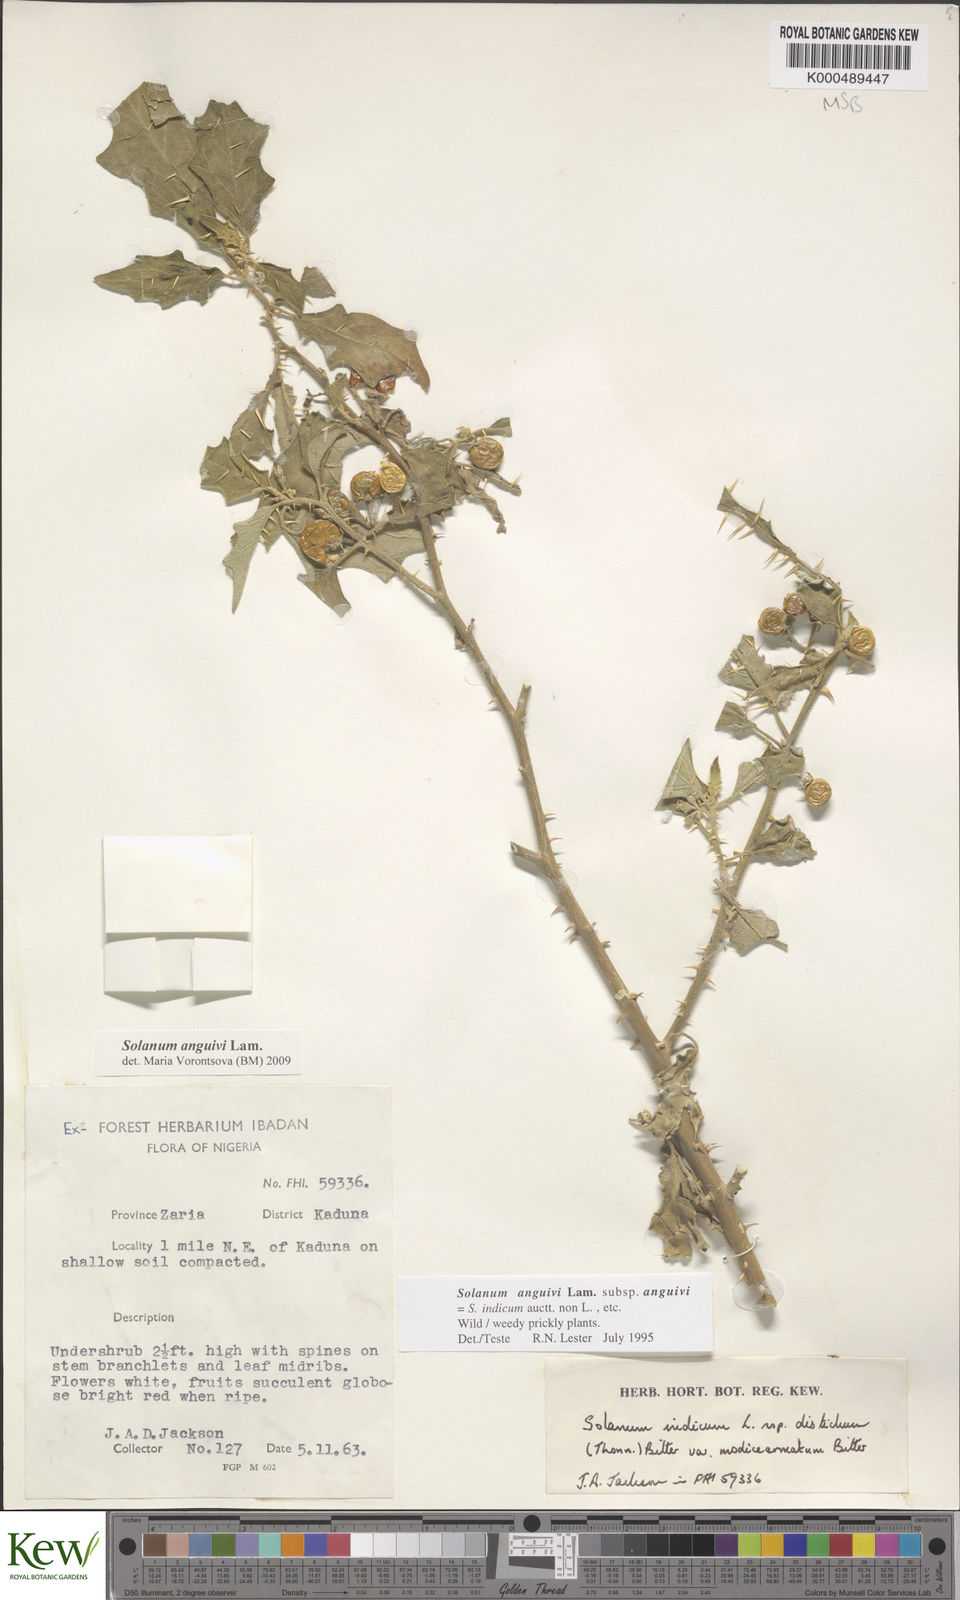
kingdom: Plantae
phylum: Tracheophyta
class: Magnoliopsida
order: Solanales
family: Solanaceae
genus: Solanum
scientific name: Solanum anguivi
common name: Forest bitterberry
